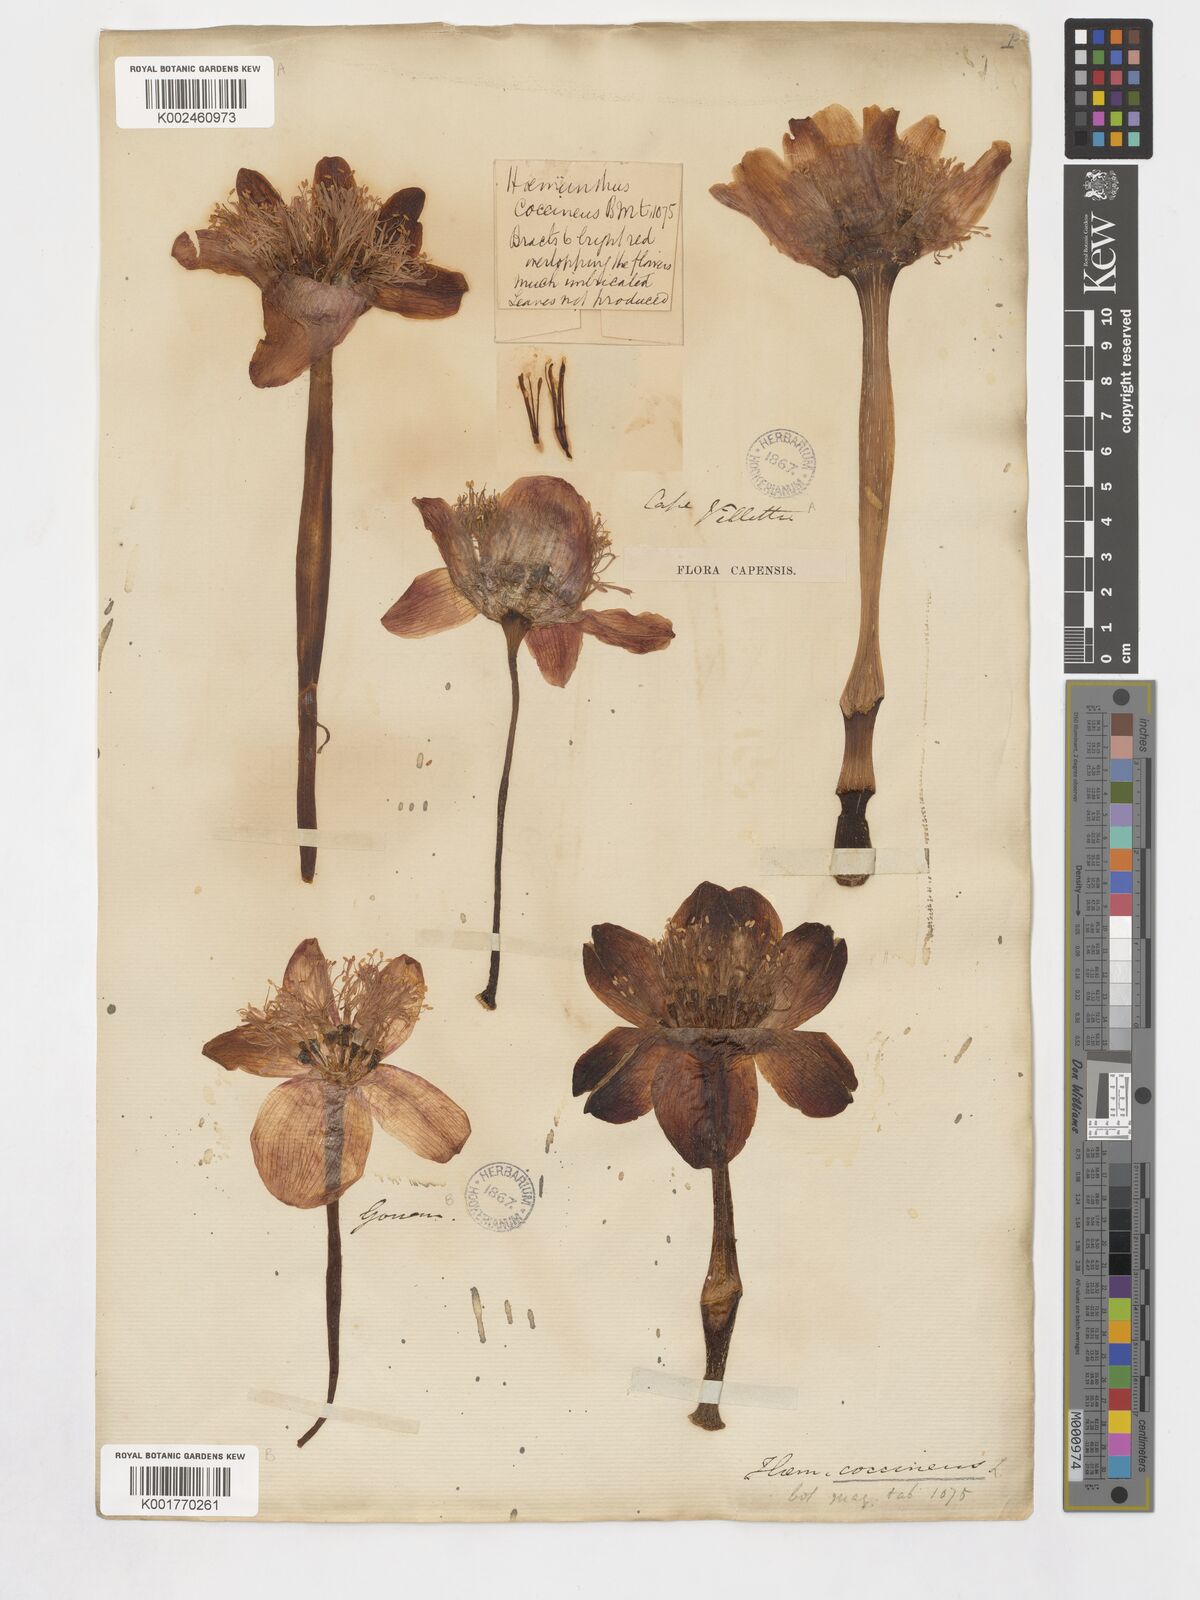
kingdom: Plantae
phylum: Tracheophyta
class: Liliopsida
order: Asparagales
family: Amaryllidaceae
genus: Haemanthus
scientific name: Haemanthus coccineus
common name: Cape-tulip
